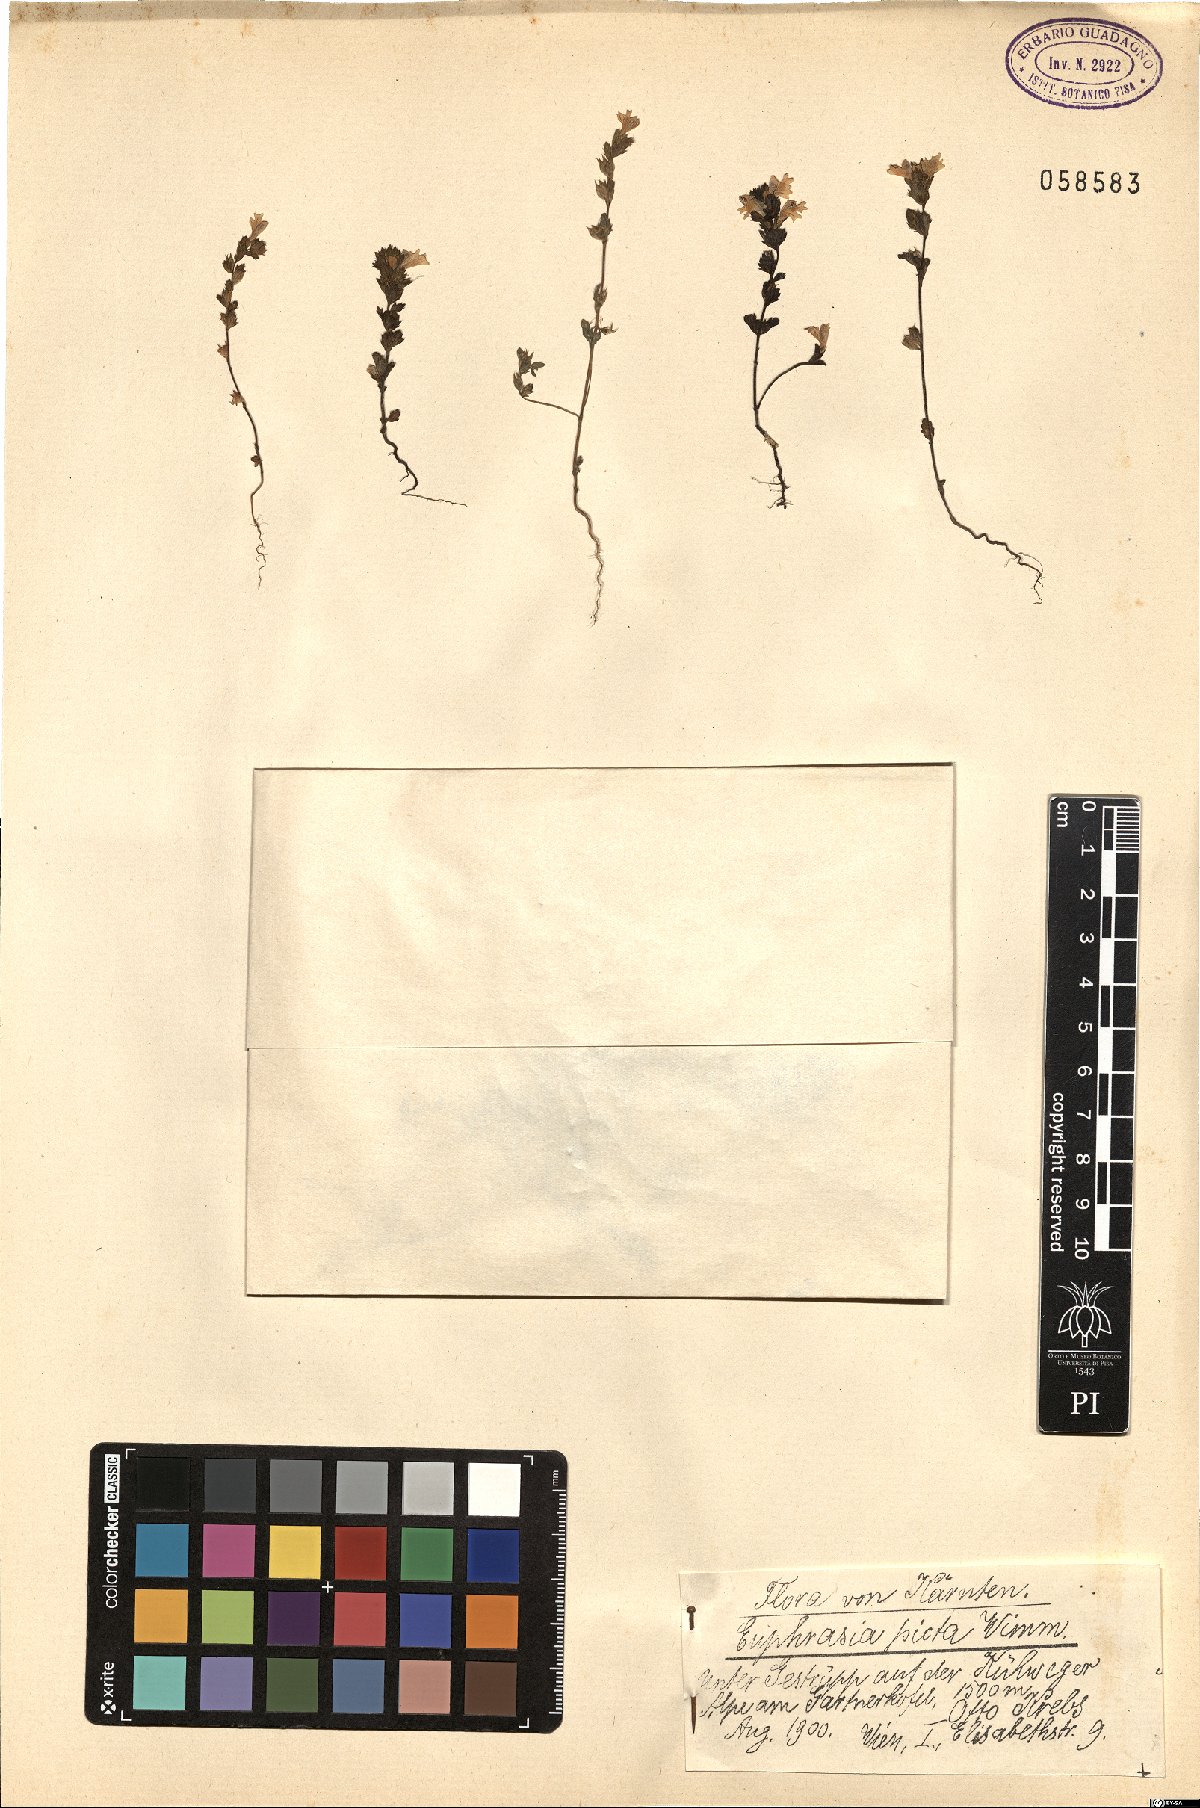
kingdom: Plantae
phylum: Tracheophyta
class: Magnoliopsida
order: Lamiales
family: Orobanchaceae
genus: Euphrasia
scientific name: Euphrasia picta
